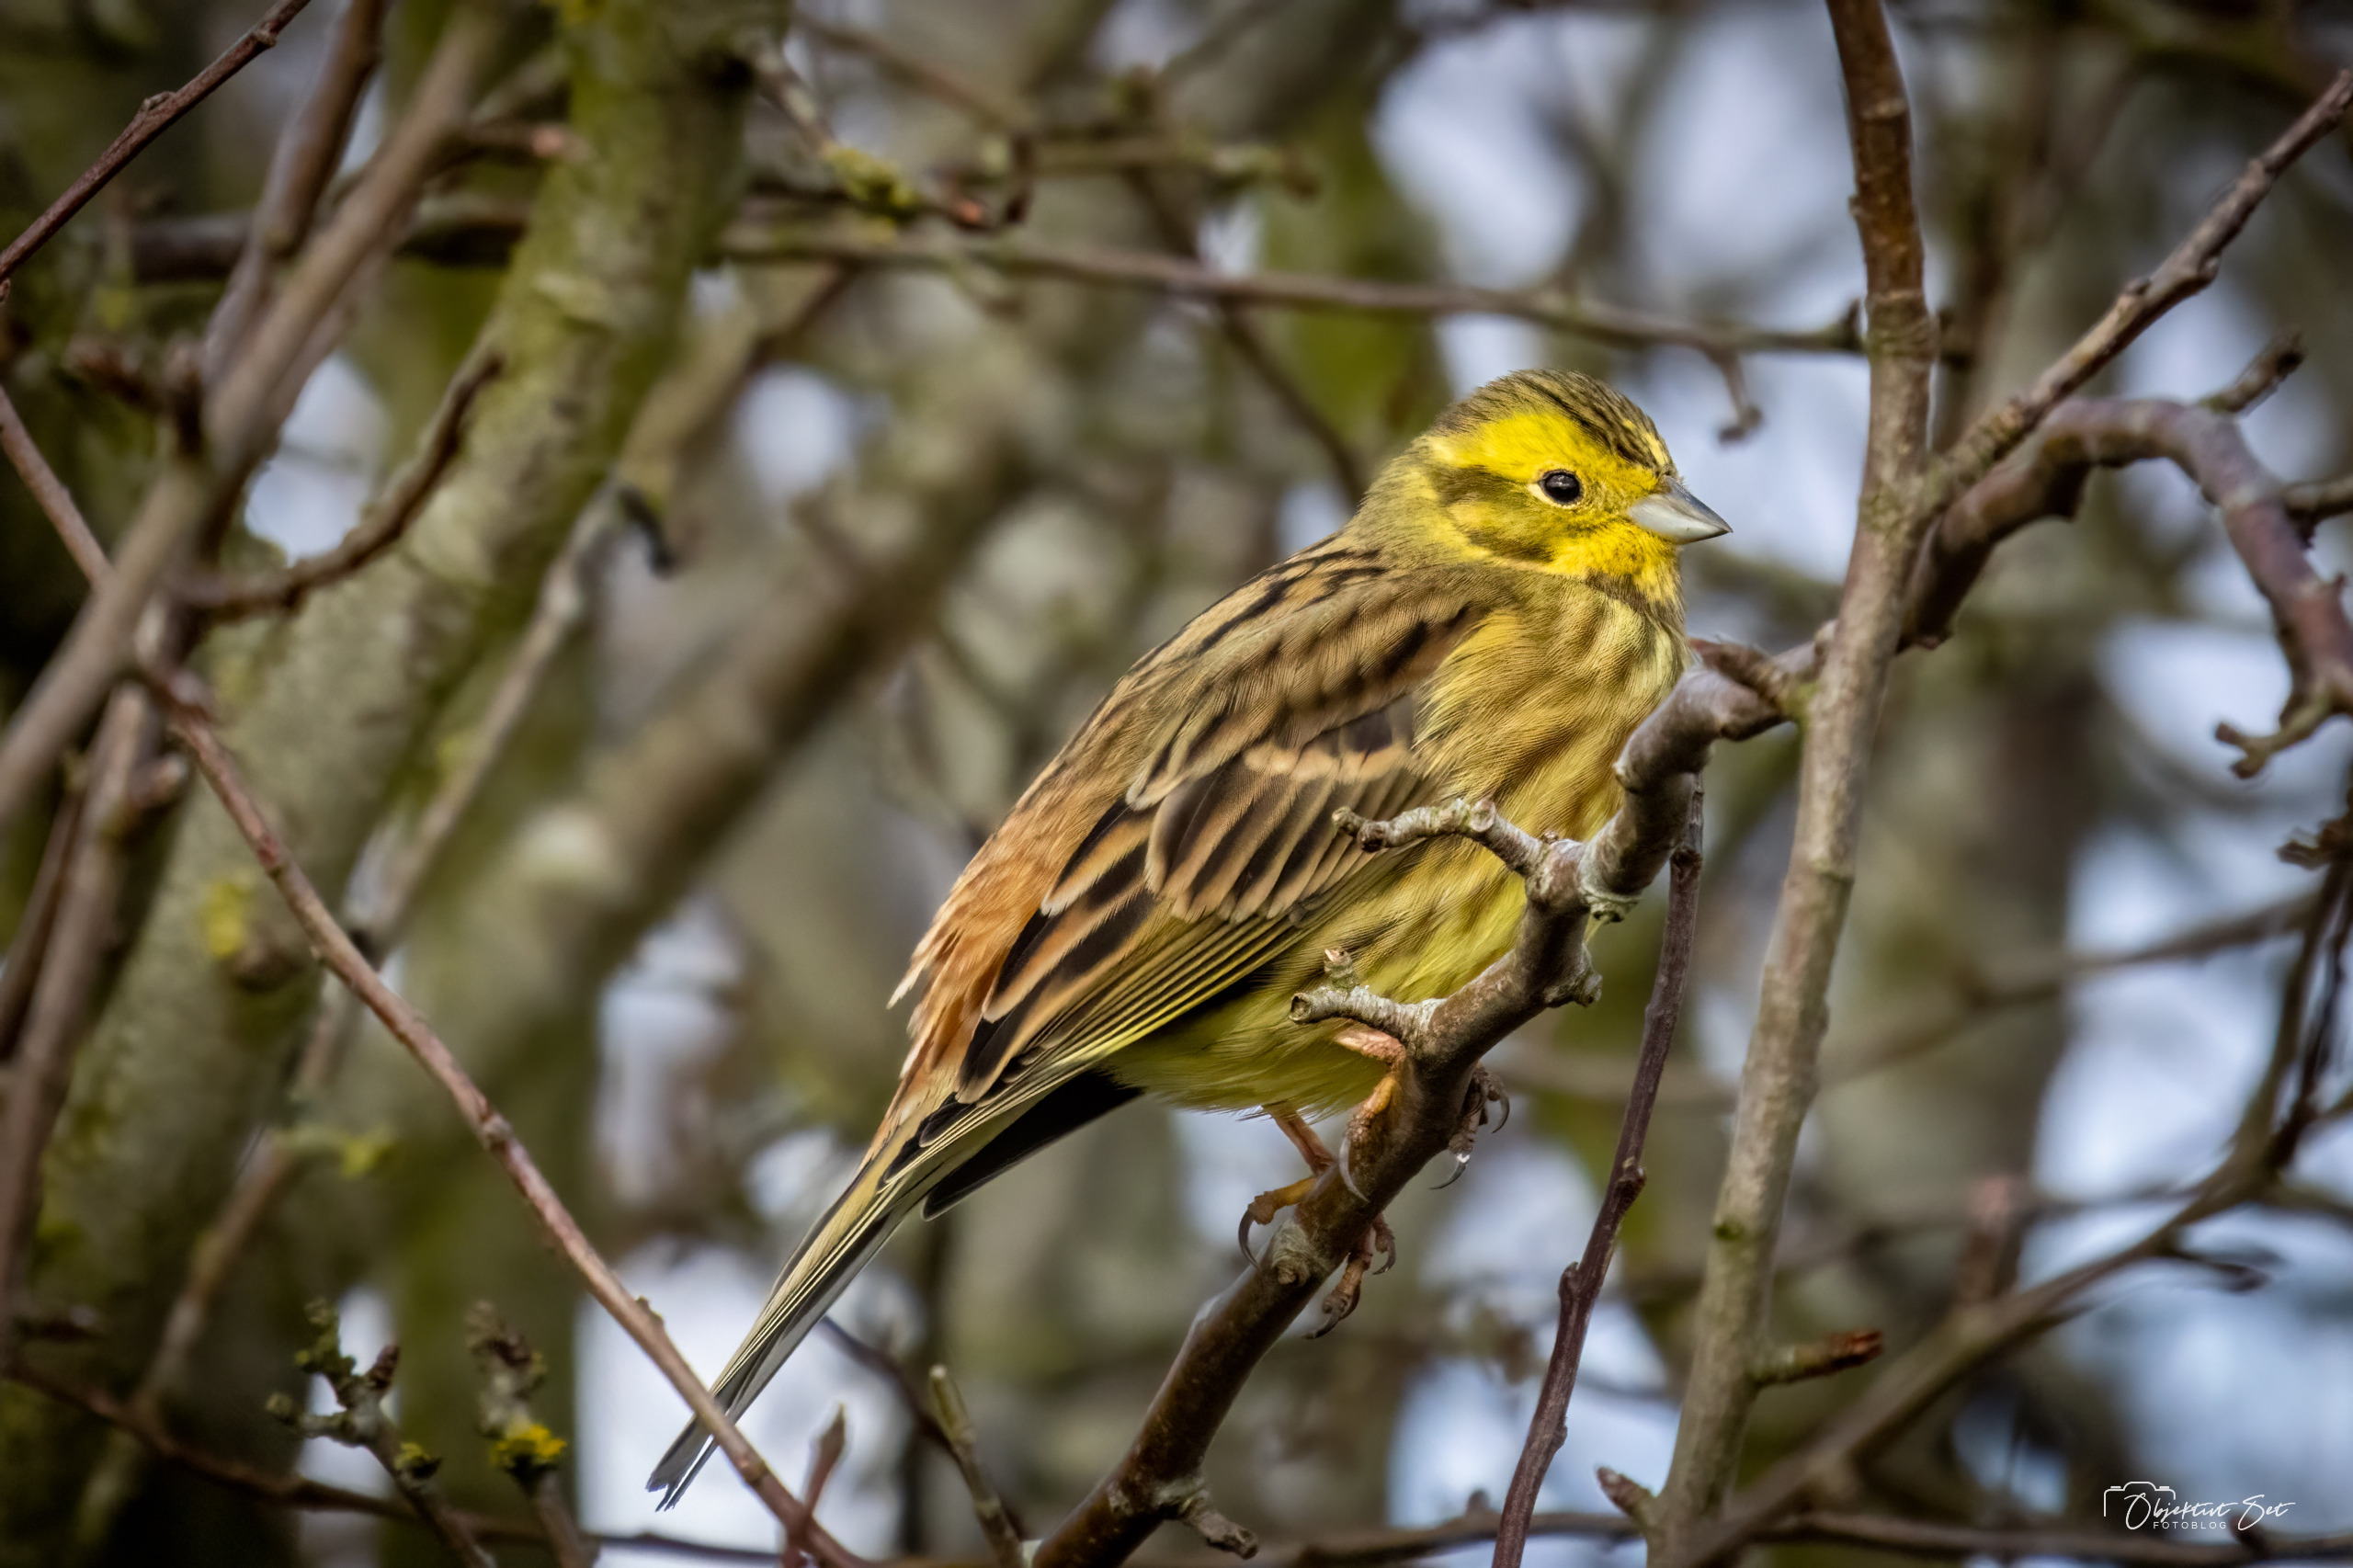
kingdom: Animalia
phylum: Chordata
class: Aves
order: Passeriformes
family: Emberizidae
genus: Emberiza
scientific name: Emberiza citrinella
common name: Gulspurv
